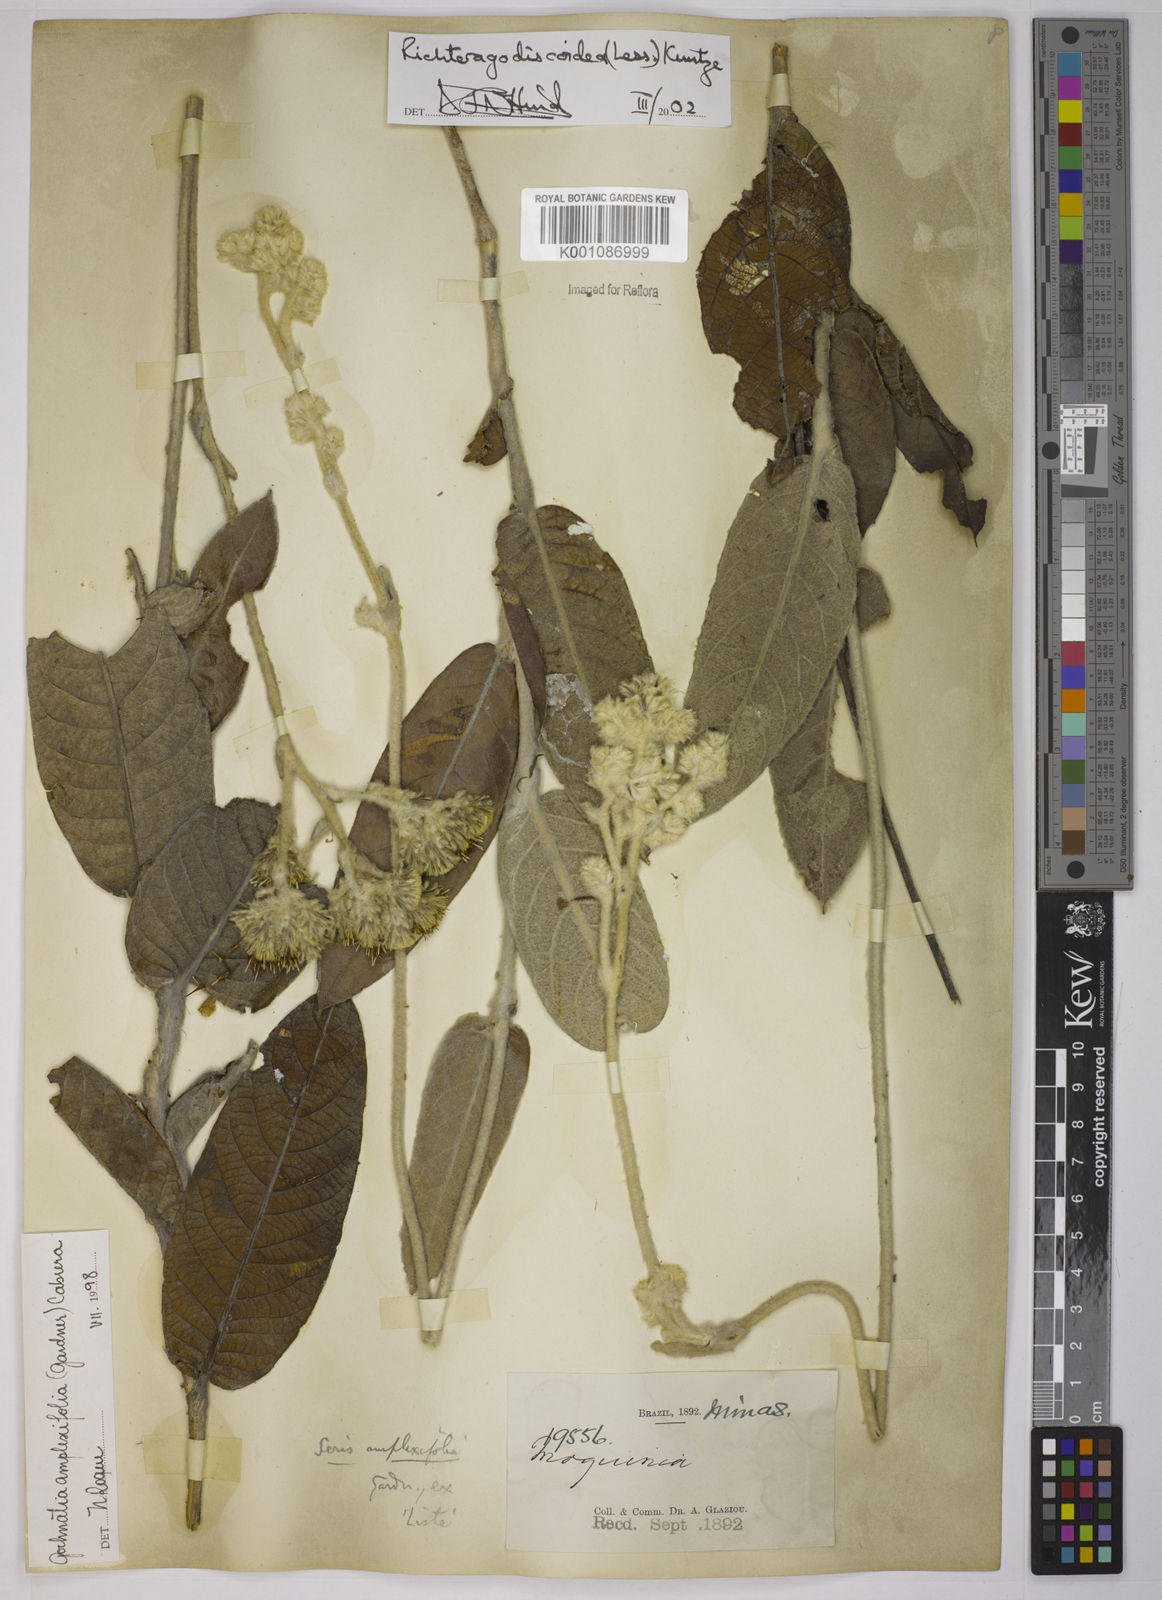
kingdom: Plantae
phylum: Tracheophyta
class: Magnoliopsida
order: Asterales
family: Asteraceae
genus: Richterago
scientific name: Richterago amplexifolia
